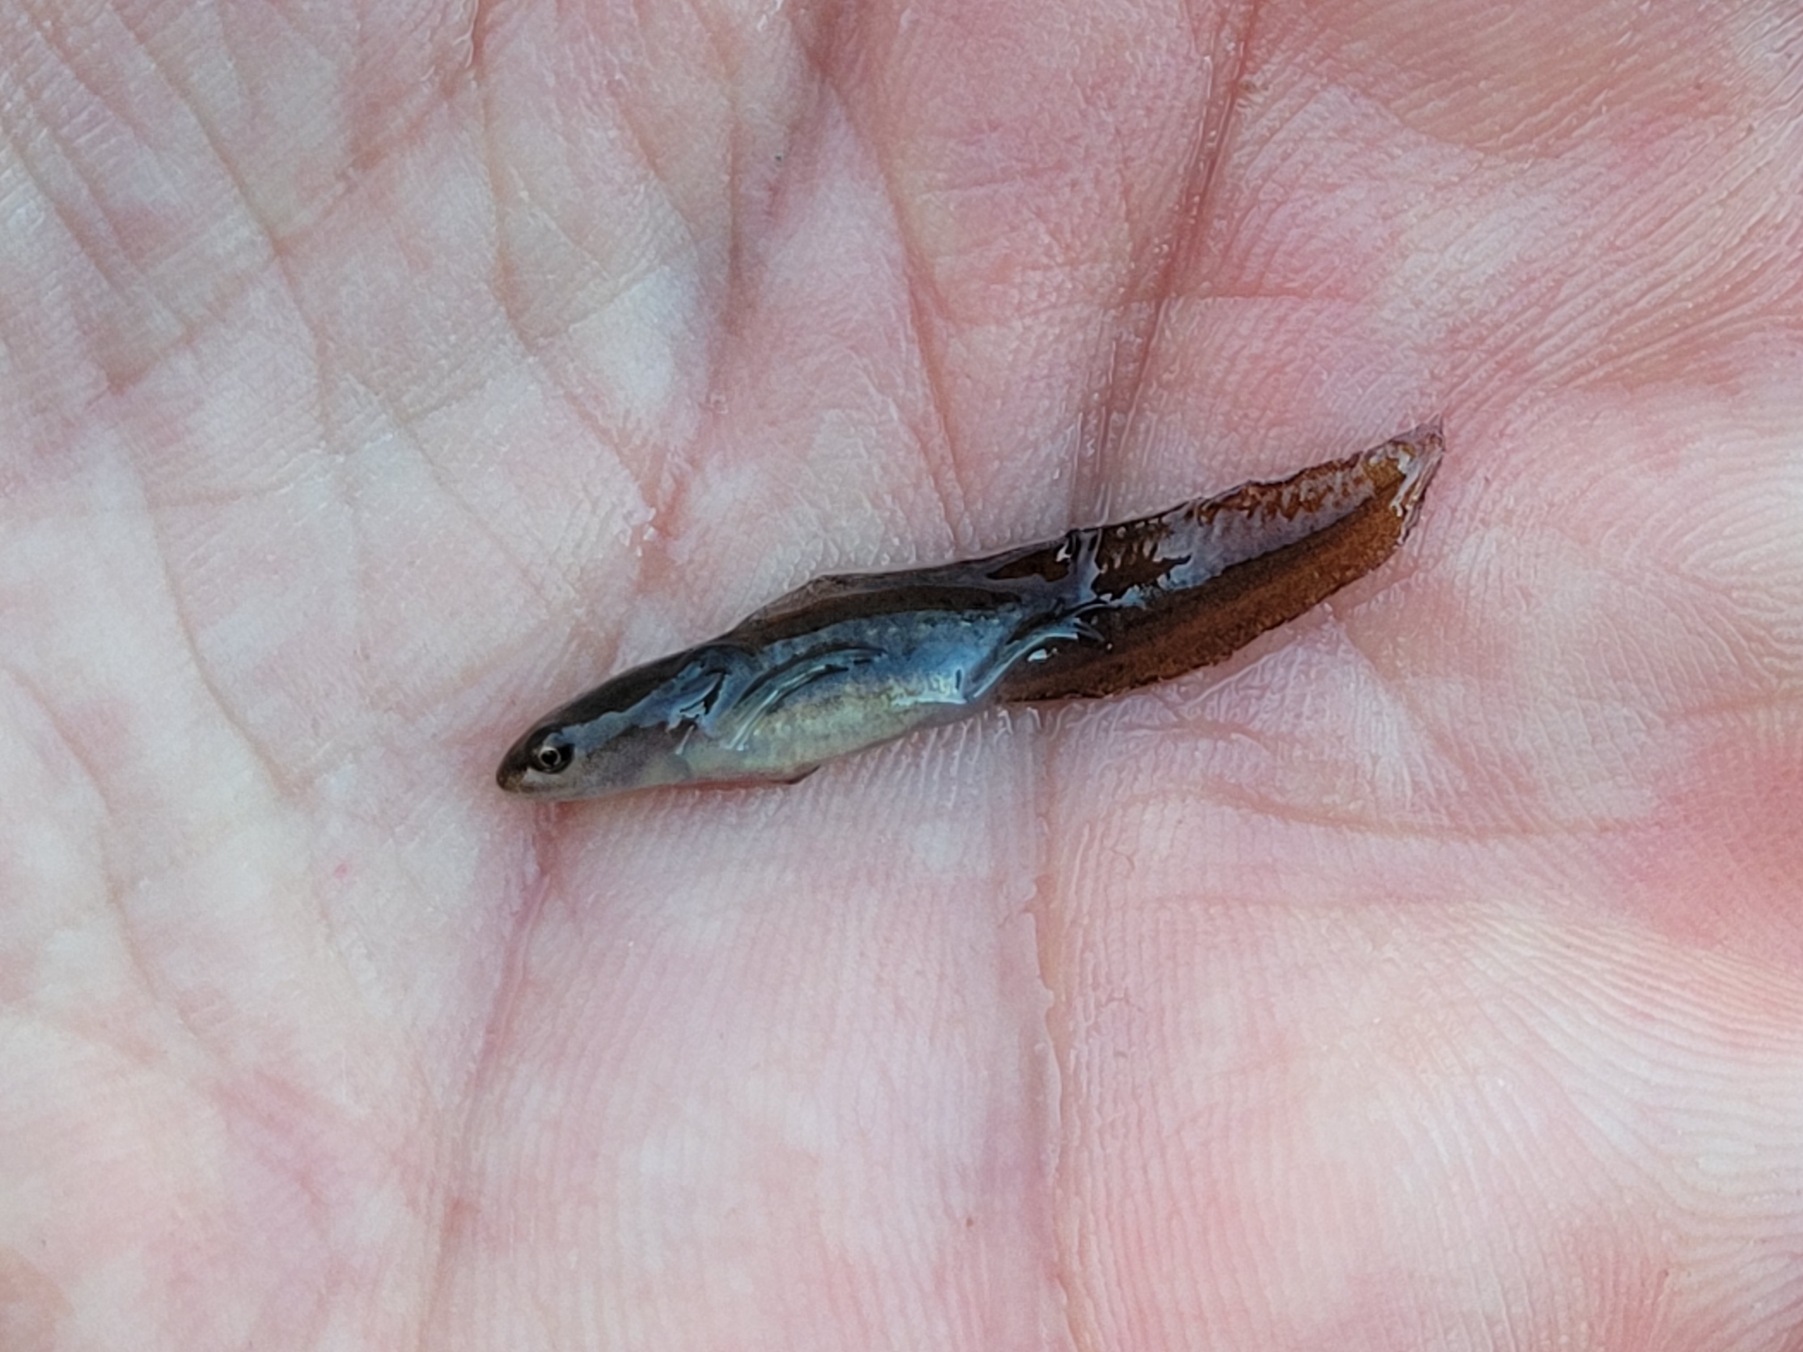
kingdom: Animalia
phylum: Chordata
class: Amphibia
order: Caudata
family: Salamandridae
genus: Lissotriton
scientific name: Lissotriton vulgaris
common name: Lille vandsalamander
